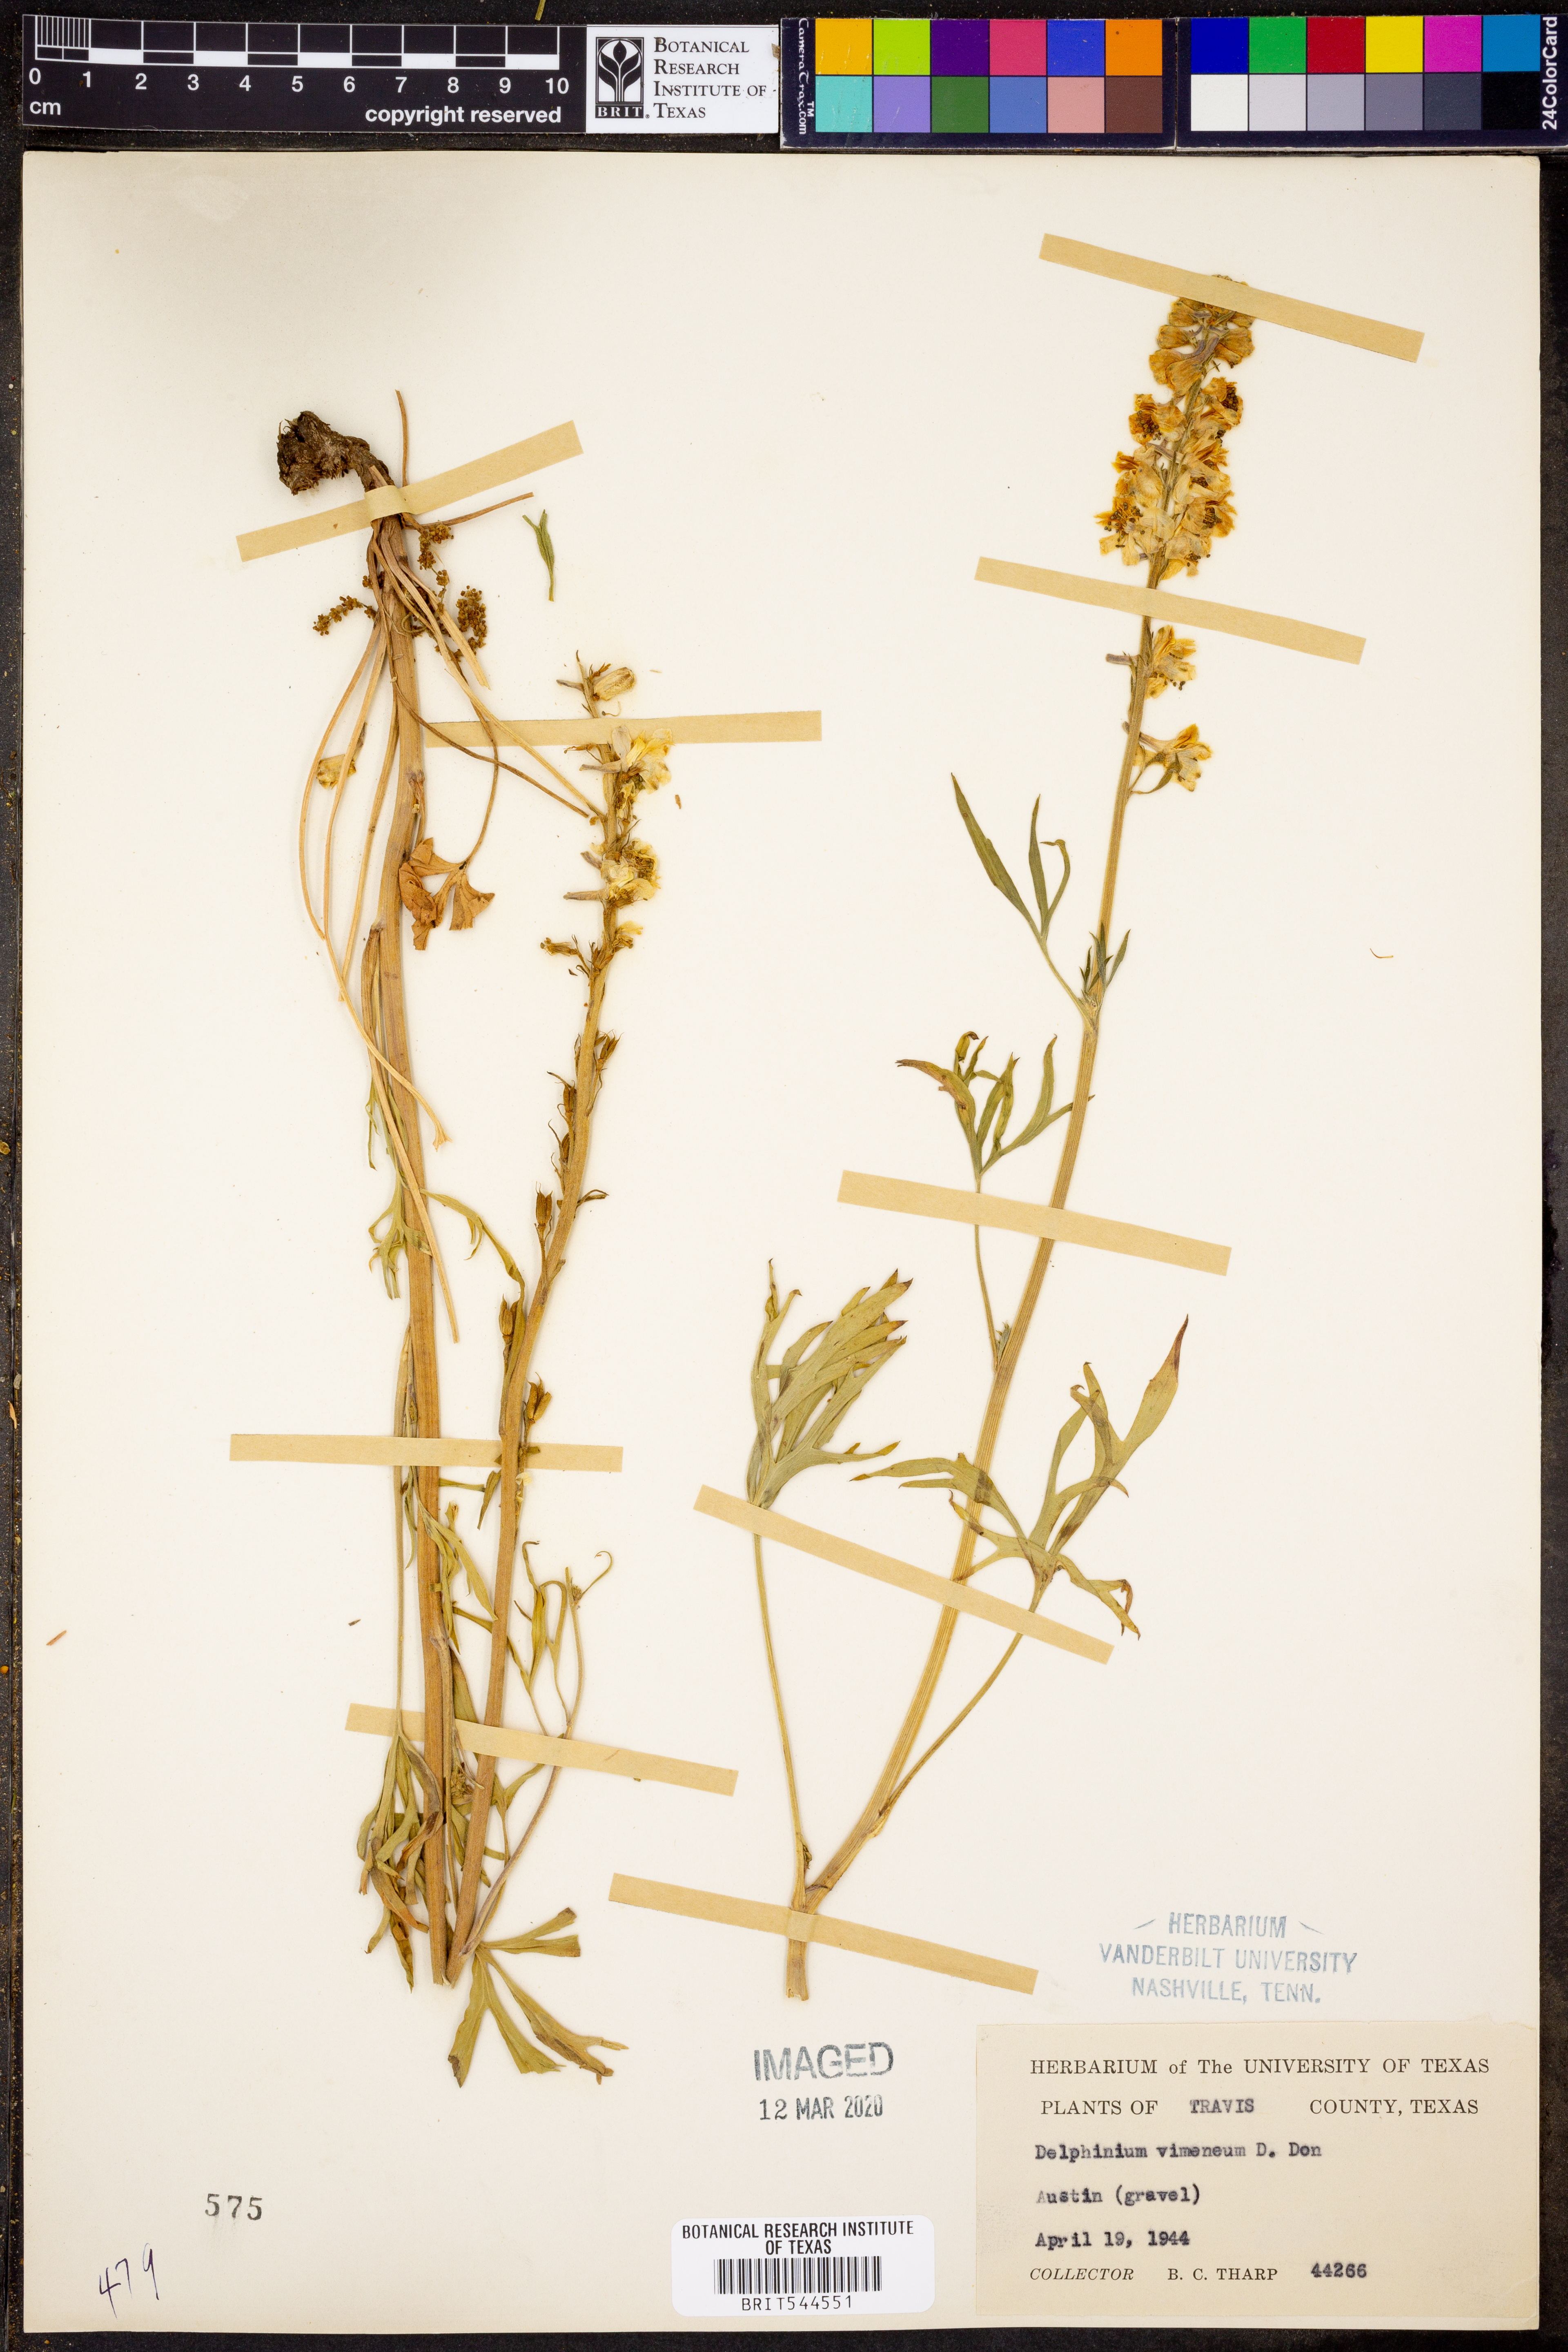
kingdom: Plantae
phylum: Tracheophyta
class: Magnoliopsida
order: Ranunculales
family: Ranunculaceae
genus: Delphinium
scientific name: Delphinium carolinianum
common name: Carolina larkspur
